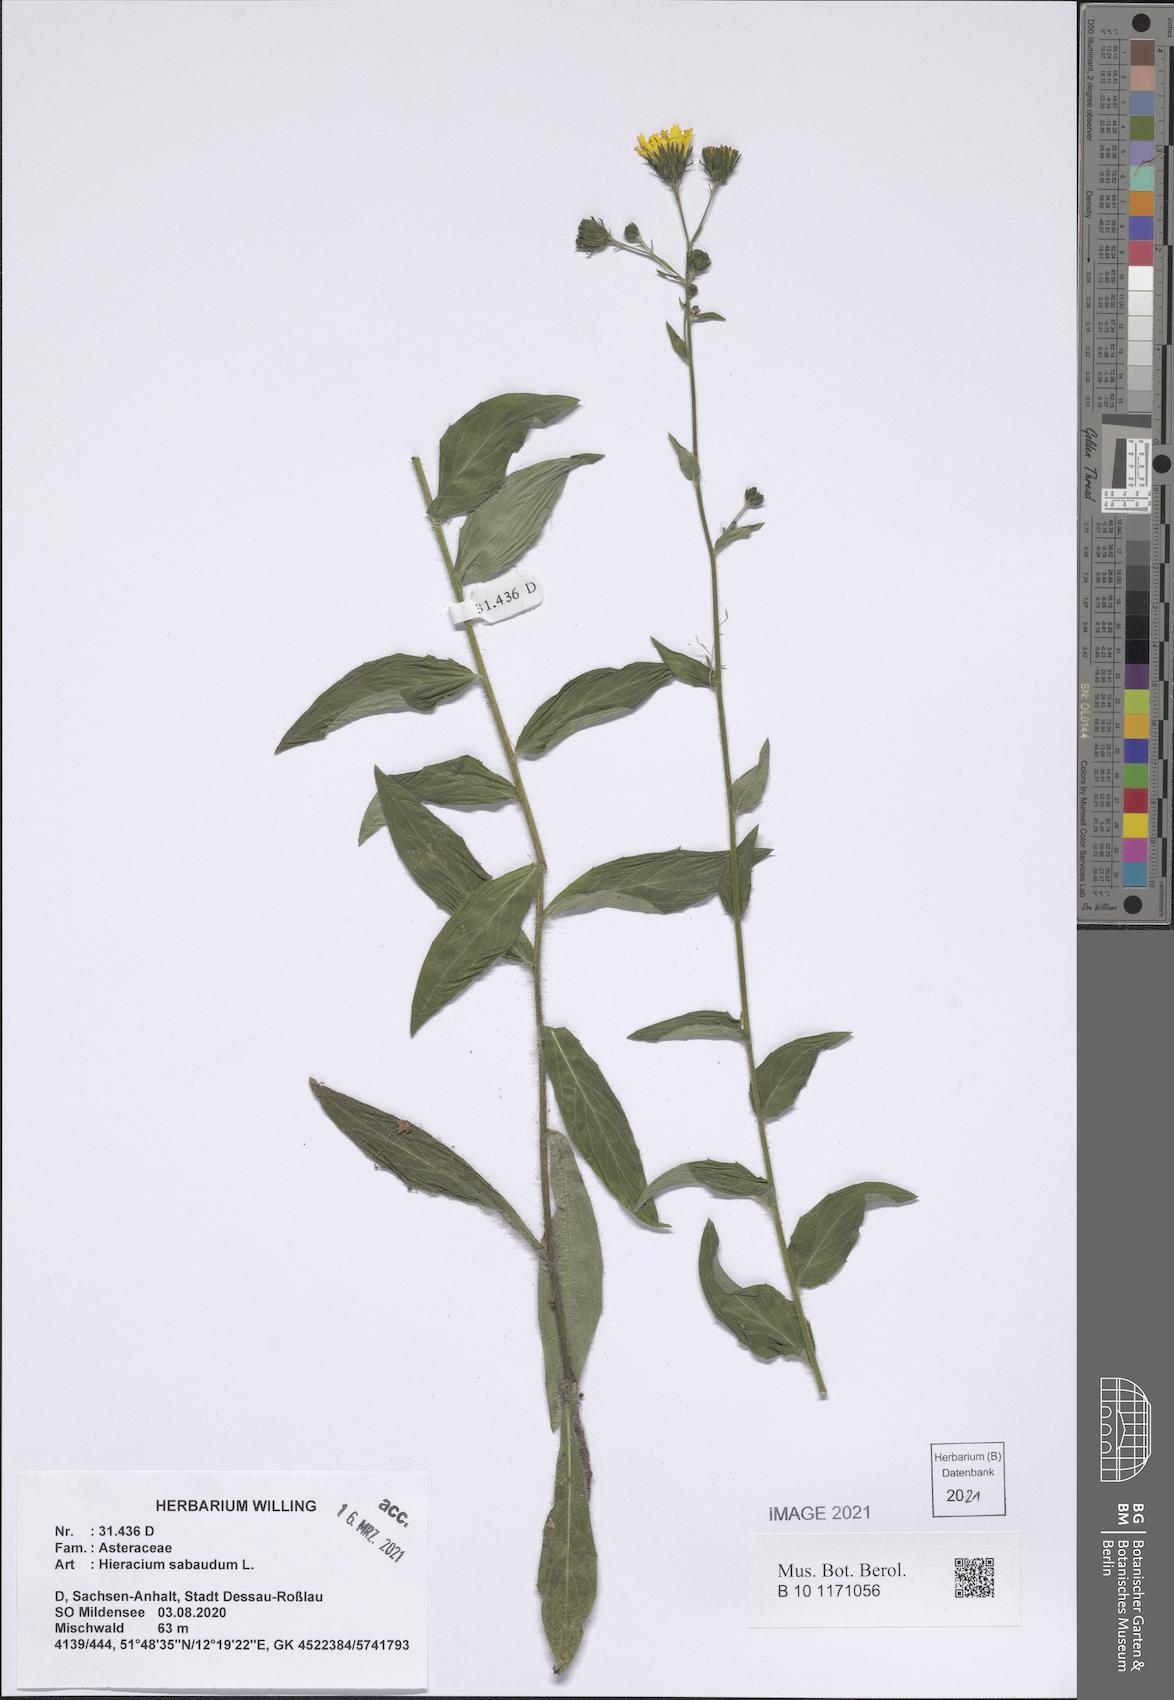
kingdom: Plantae
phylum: Tracheophyta
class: Magnoliopsida
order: Asterales
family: Asteraceae
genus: Hieracium
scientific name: Hieracium sabaudum
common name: New england hawkweed
